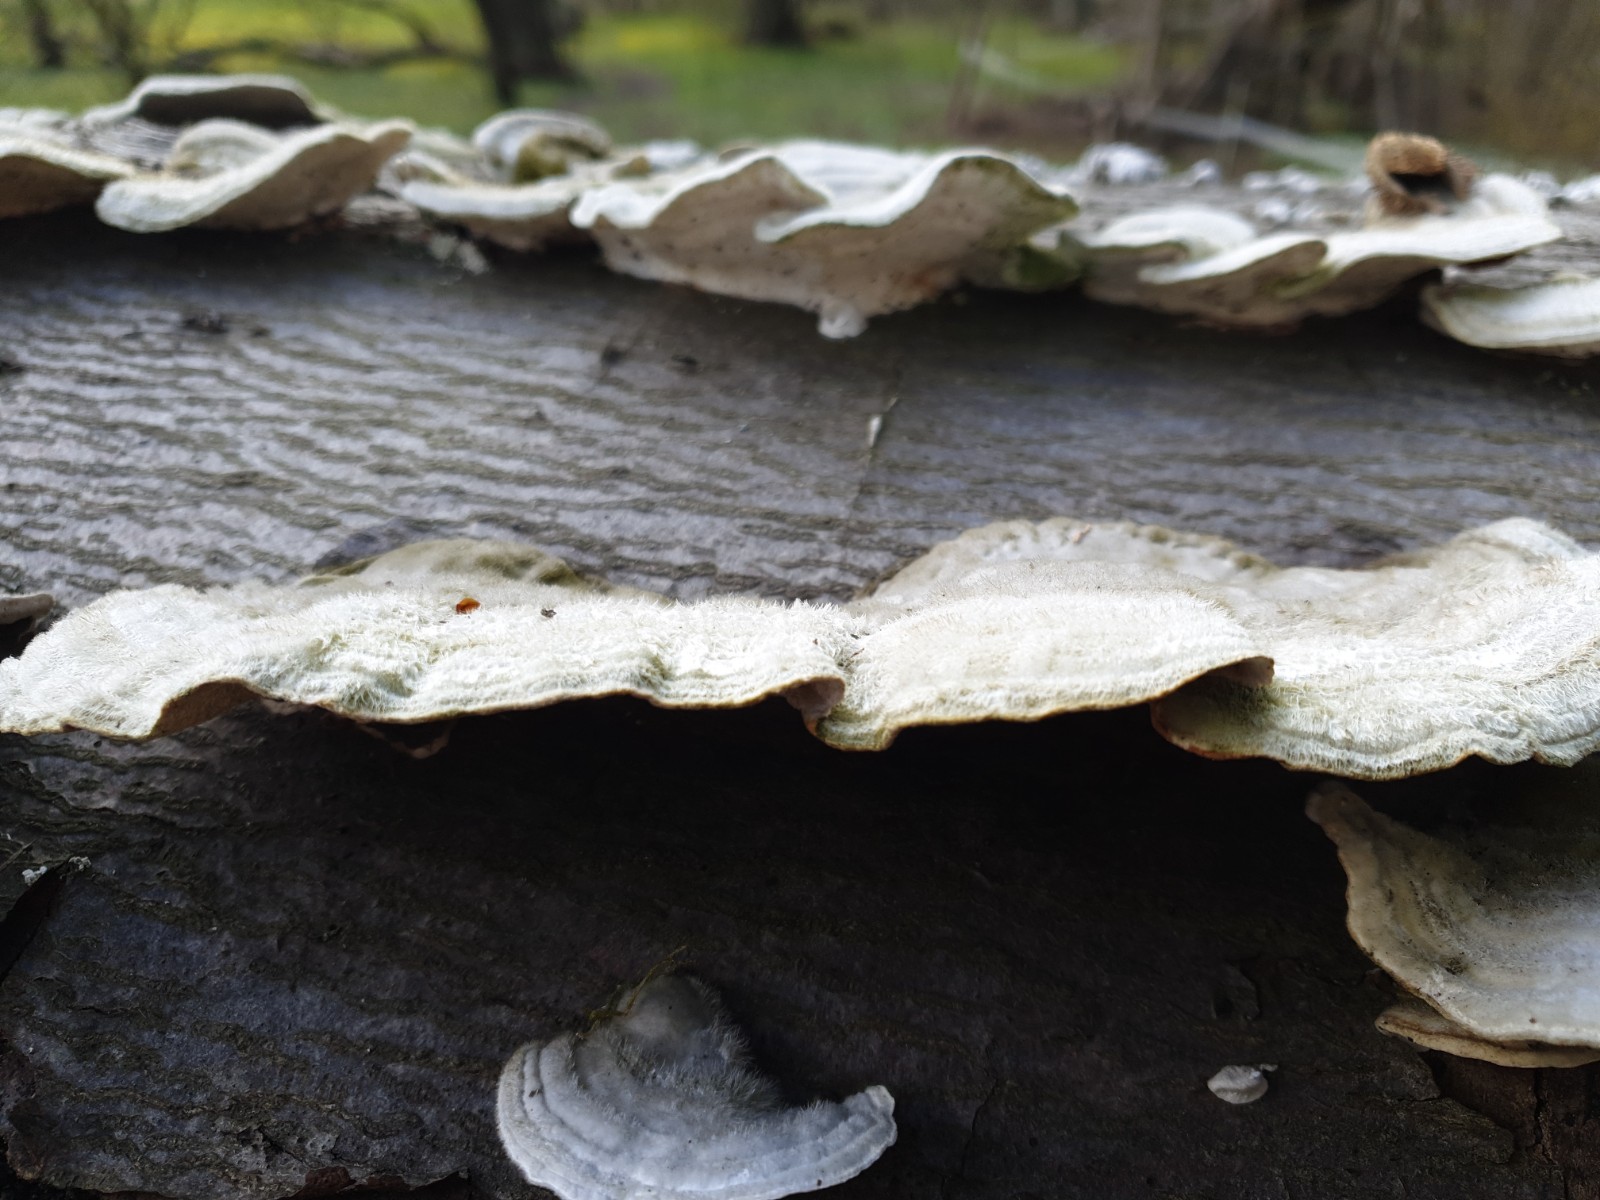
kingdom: Fungi
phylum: Basidiomycota
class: Agaricomycetes
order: Polyporales
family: Polyporaceae
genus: Trametes
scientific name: Trametes hirsuta
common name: håret læderporesvamp
